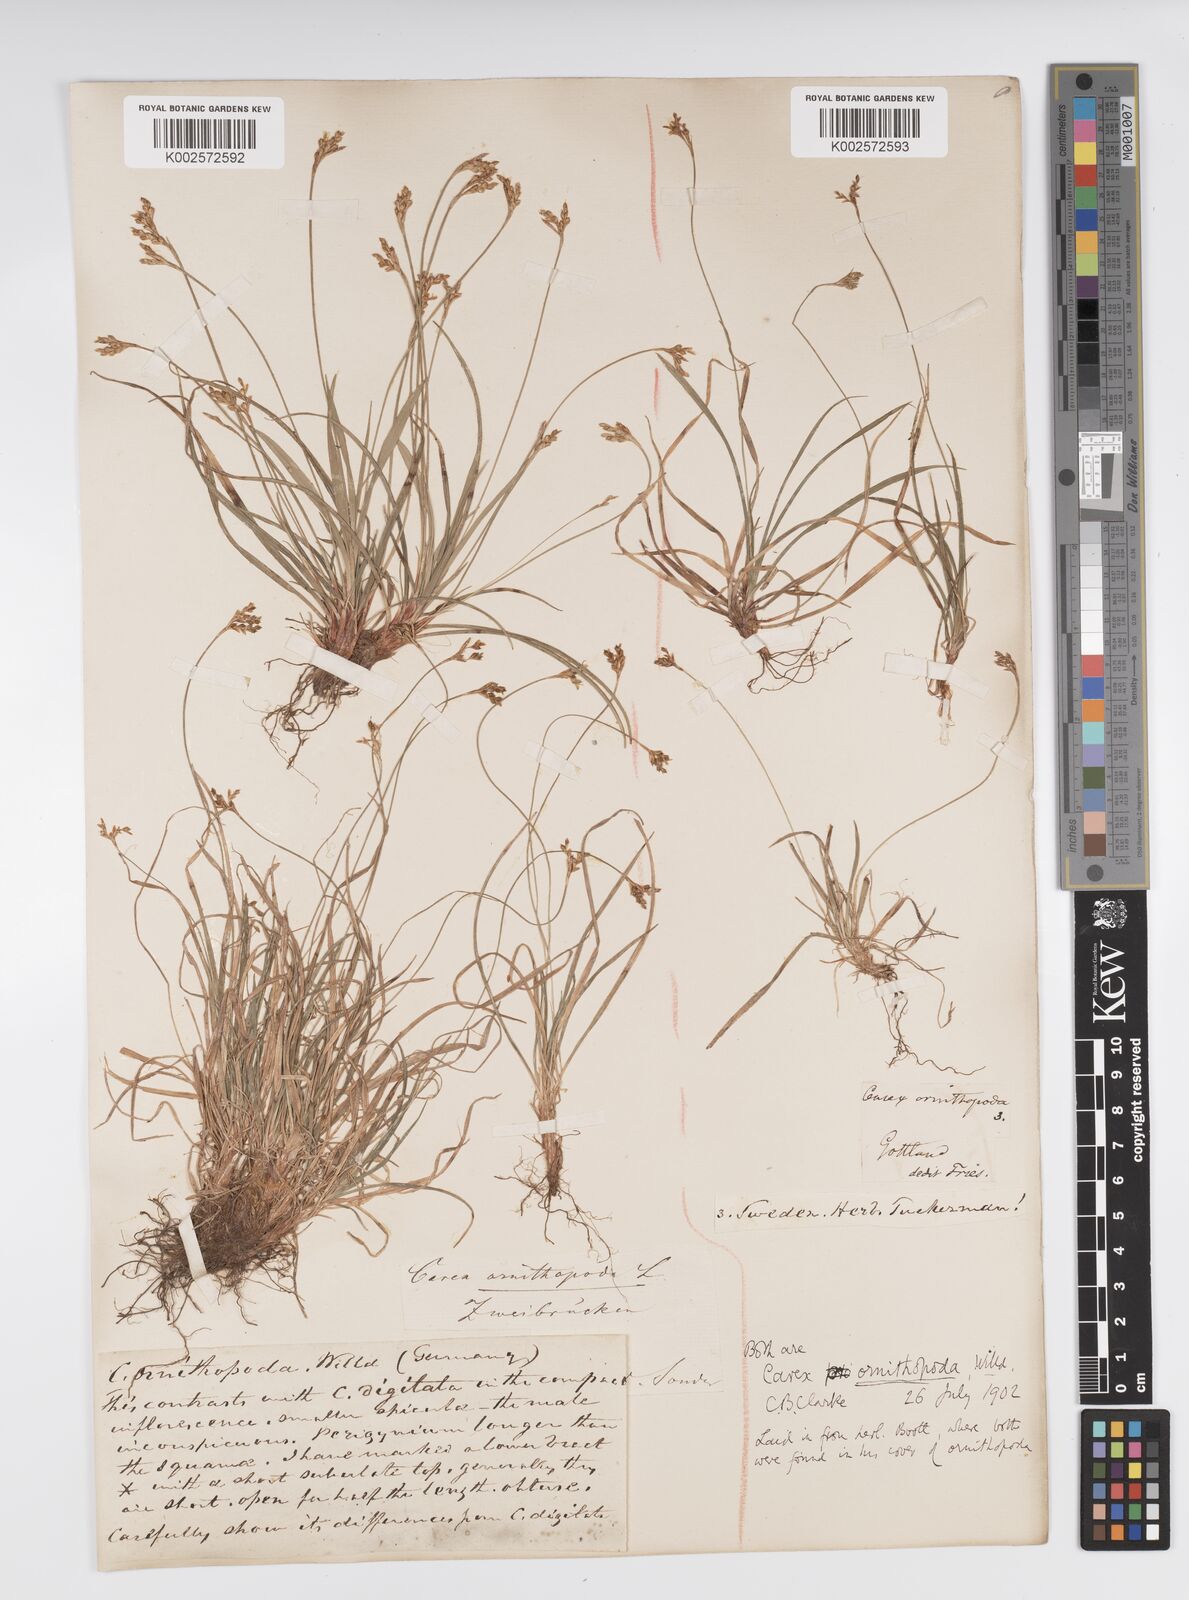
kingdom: Plantae
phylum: Tracheophyta
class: Liliopsida
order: Poales
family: Cyperaceae
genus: Carex
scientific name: Carex ornithopoda
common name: Bird's-foot sedge
